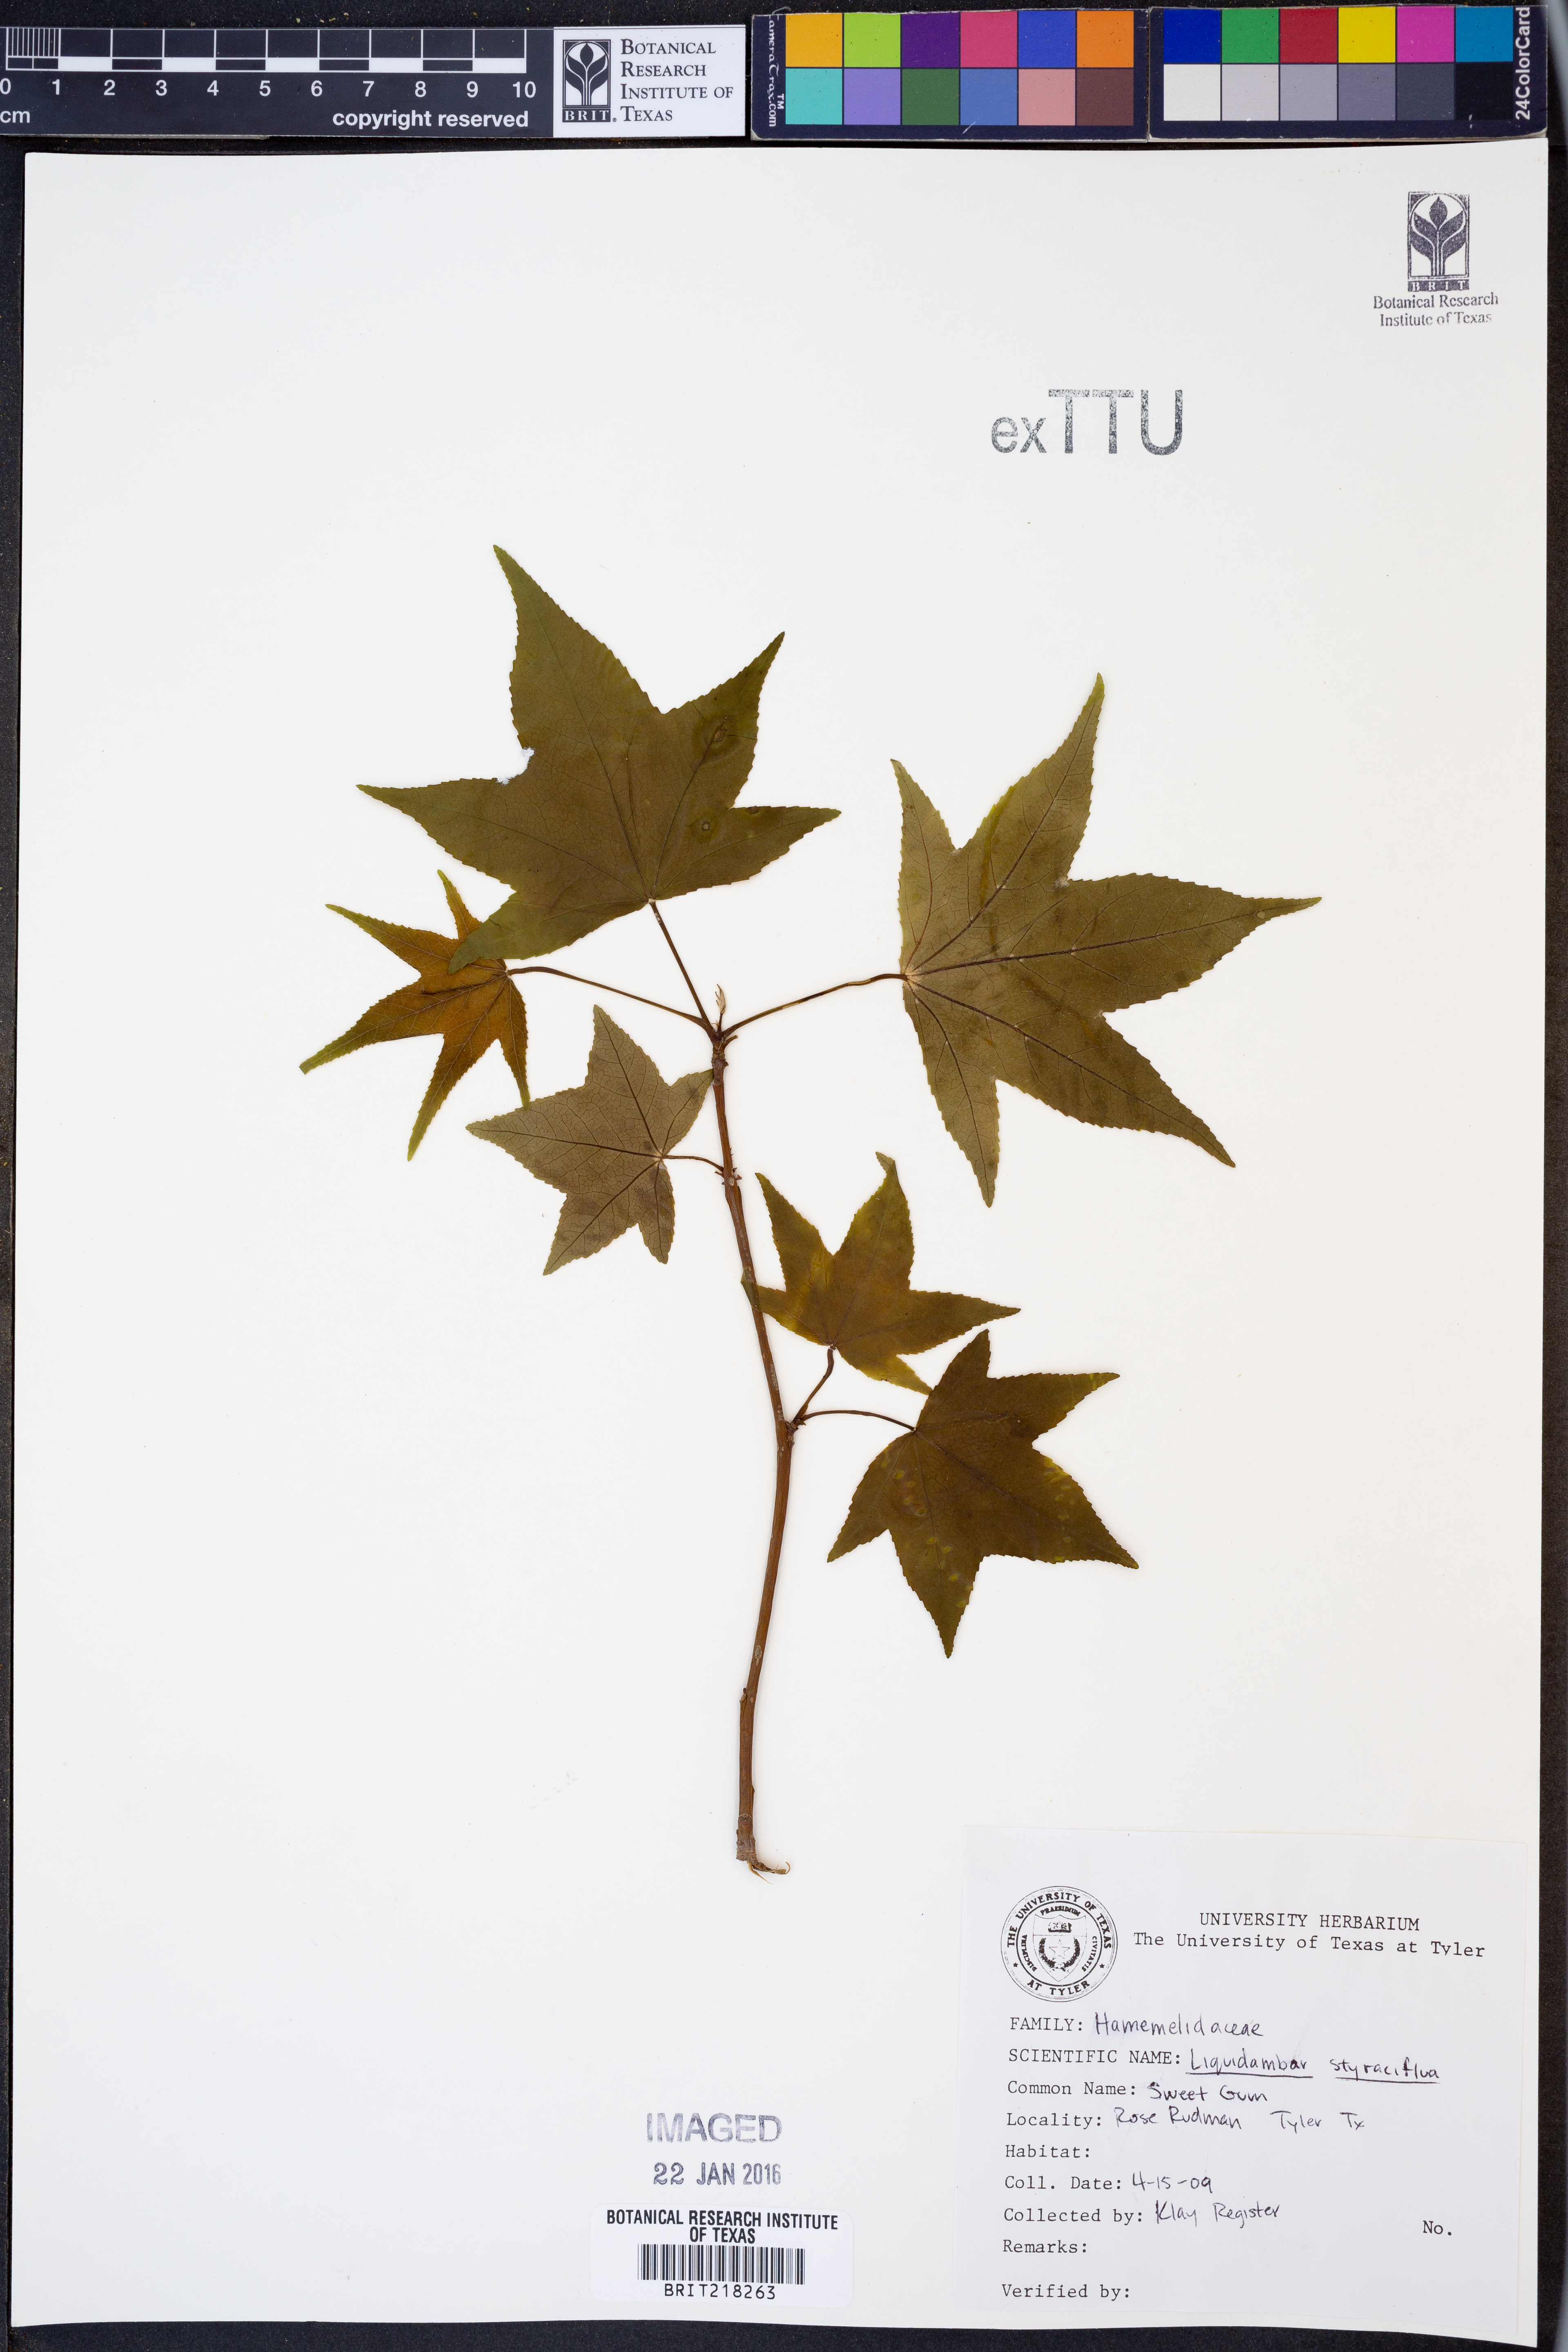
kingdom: Plantae
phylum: Tracheophyta
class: Magnoliopsida
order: Saxifragales
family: Altingiaceae
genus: Liquidambar
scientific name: Liquidambar styraciflua
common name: Sweet gum
